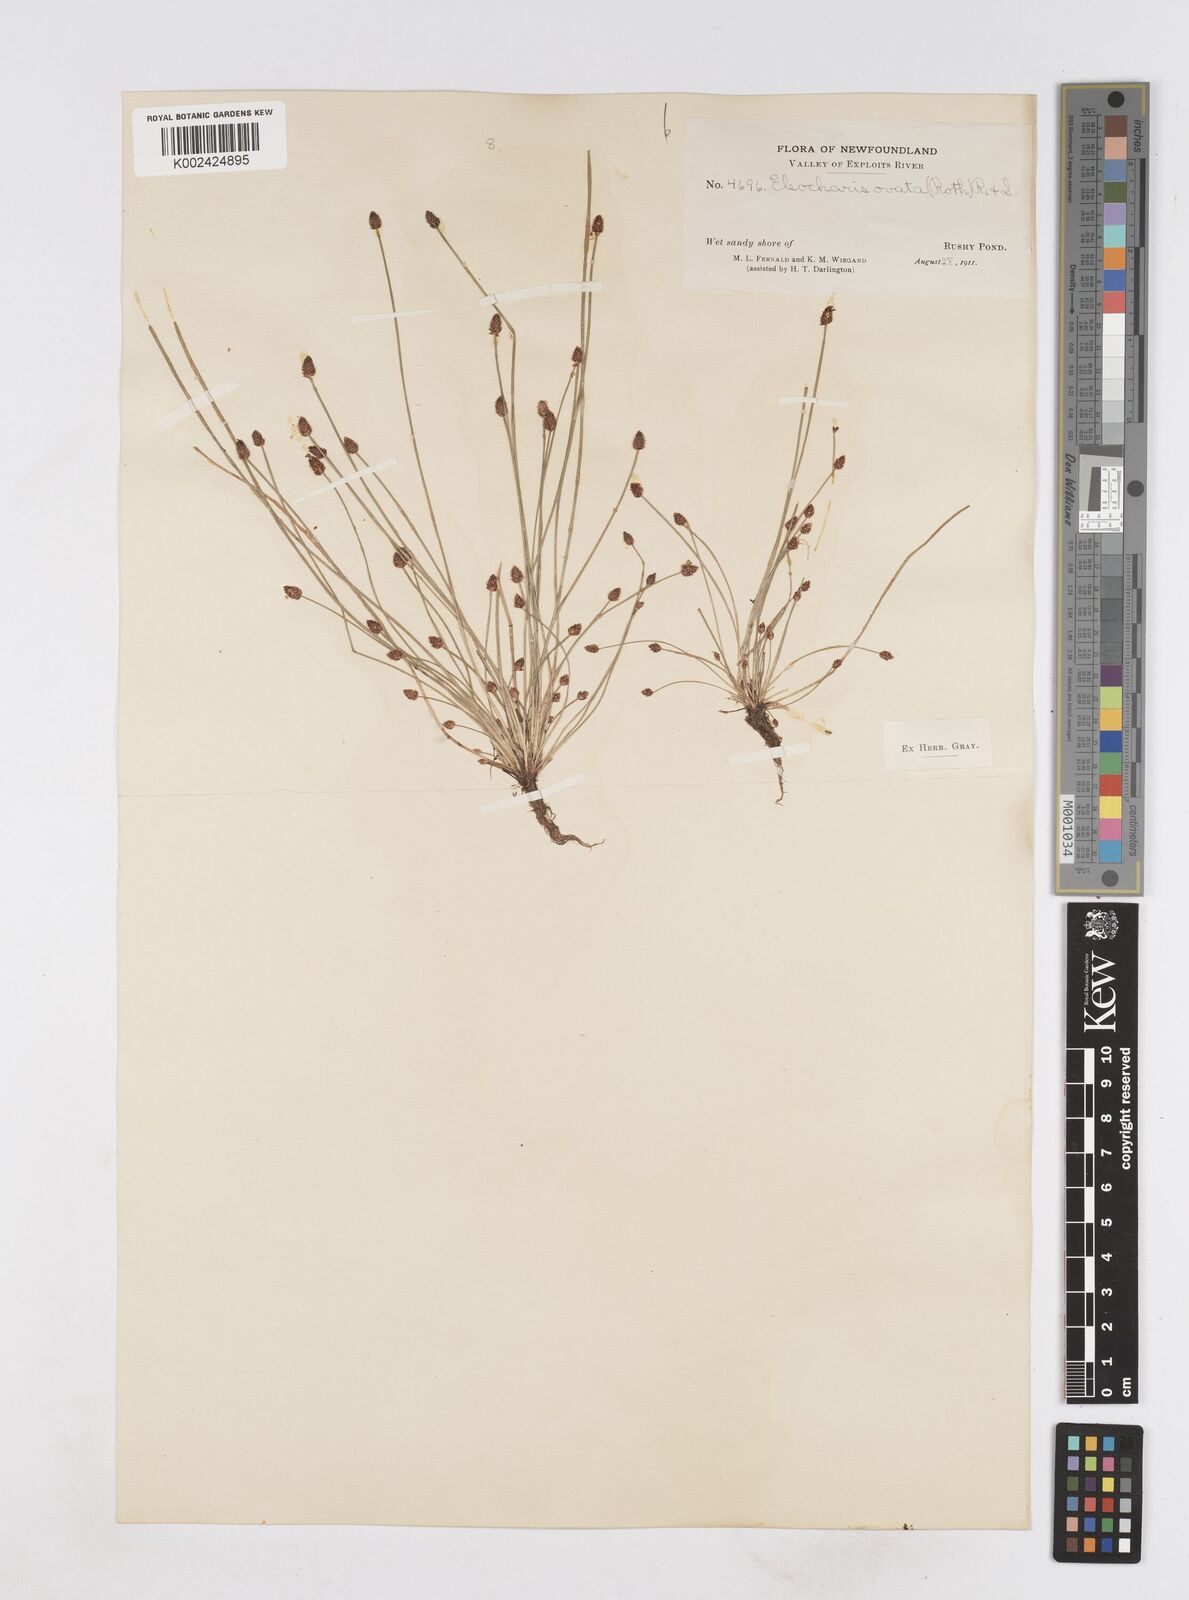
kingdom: Plantae
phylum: Tracheophyta
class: Liliopsida
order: Poales
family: Cyperaceae
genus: Eleocharis
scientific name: Eleocharis ovata
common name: Oval spike-rush
